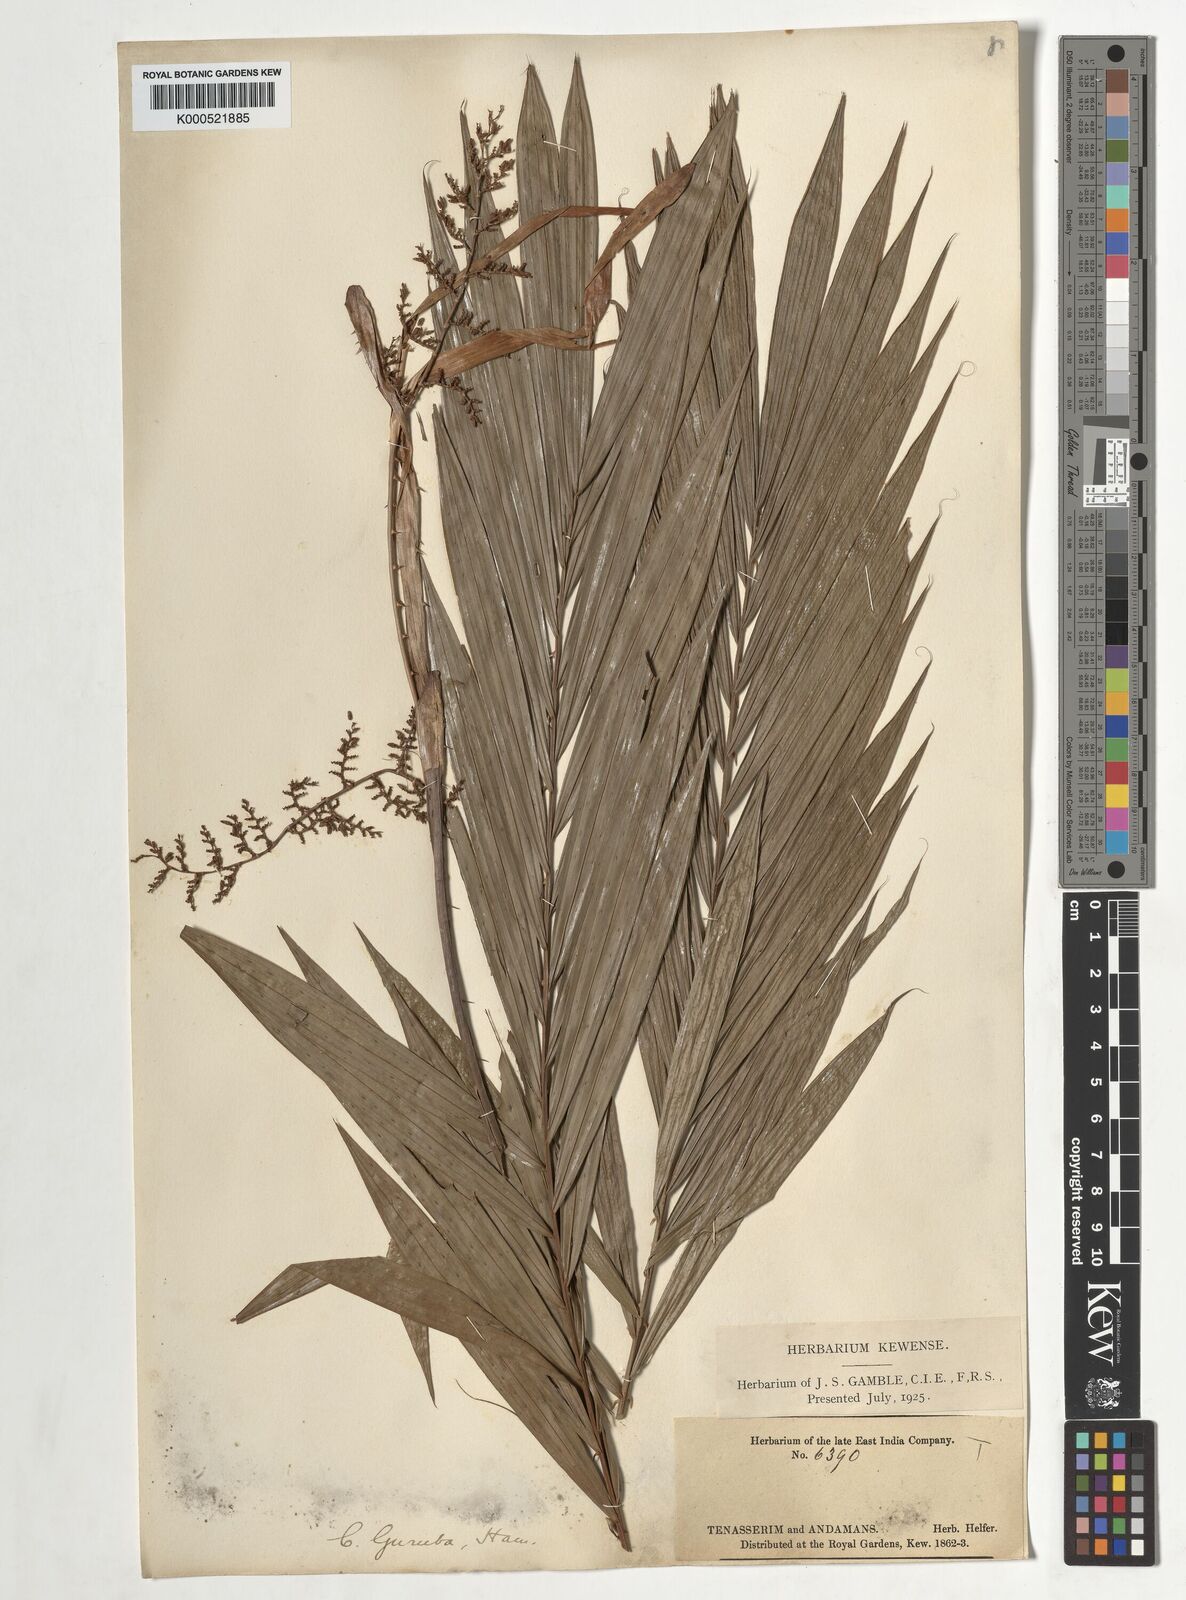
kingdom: Plantae
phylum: Tracheophyta
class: Liliopsida
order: Arecales
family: Arecaceae
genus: Calamus
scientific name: Calamus
